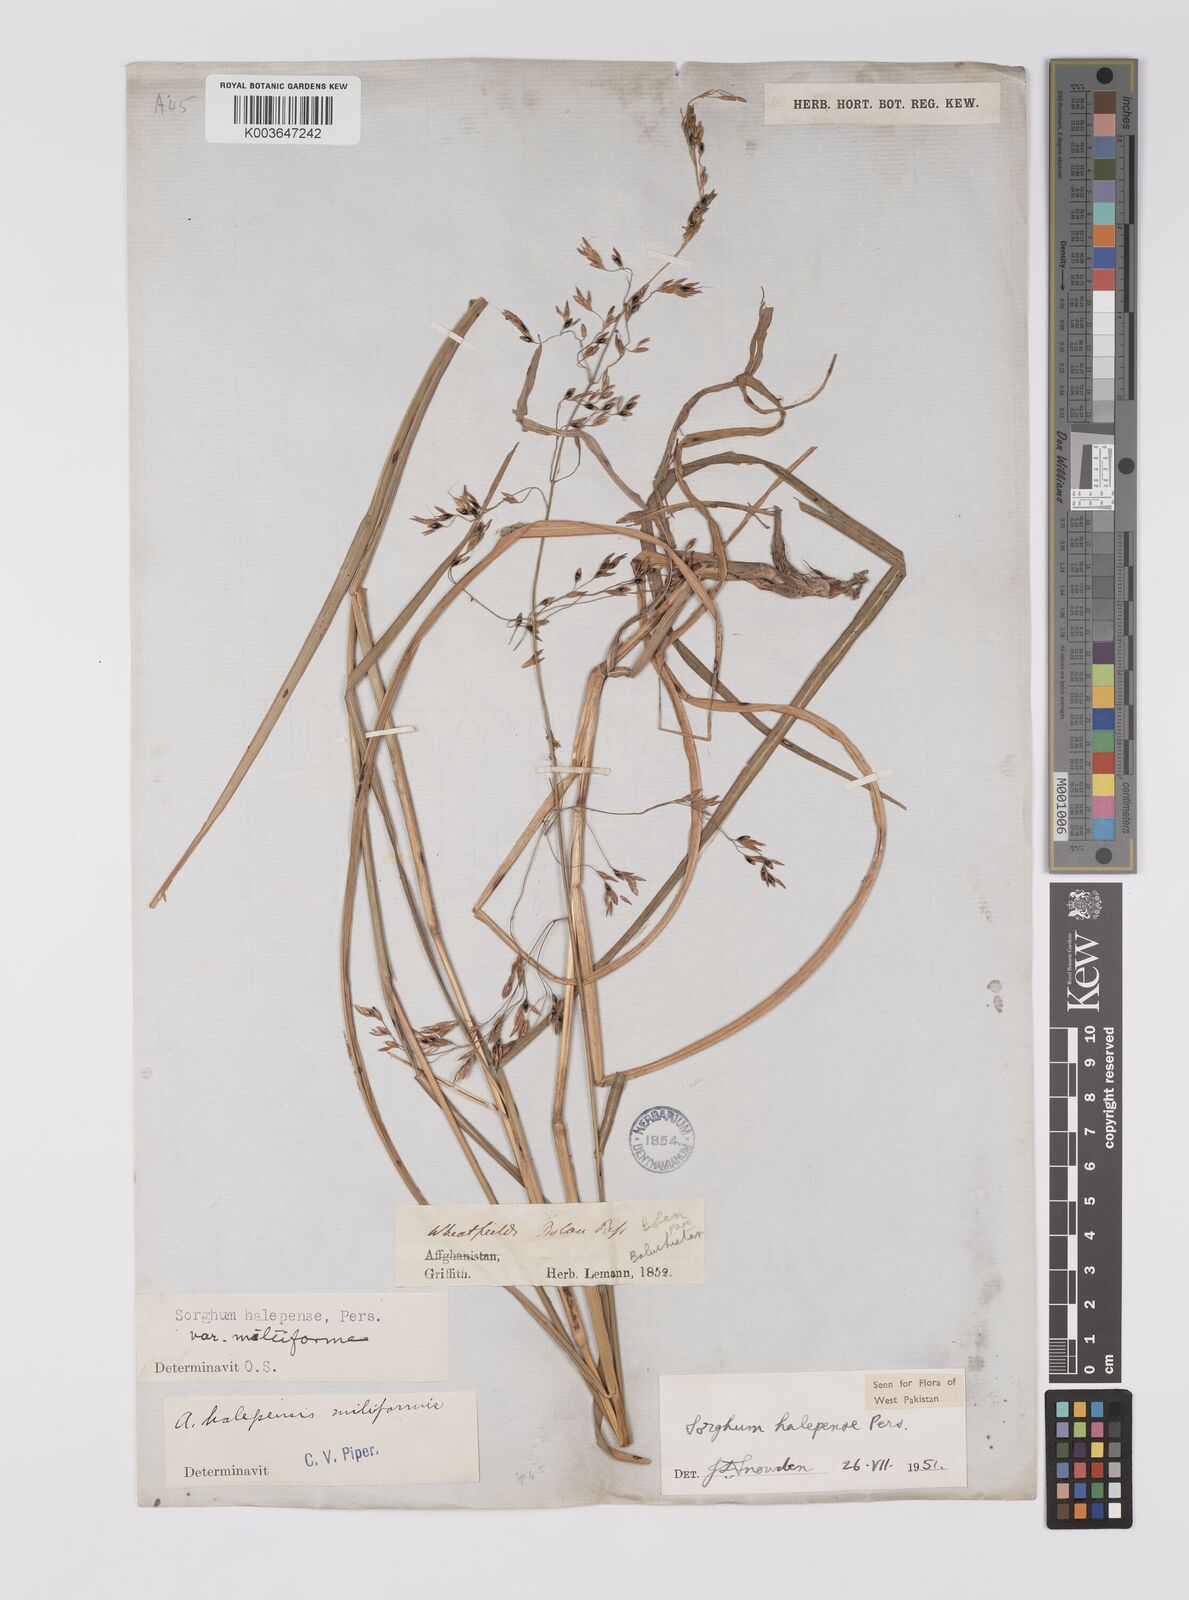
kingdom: Plantae
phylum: Tracheophyta
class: Liliopsida
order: Poales
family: Poaceae
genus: Sorghum
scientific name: Sorghum halepense
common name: Johnson-grass
